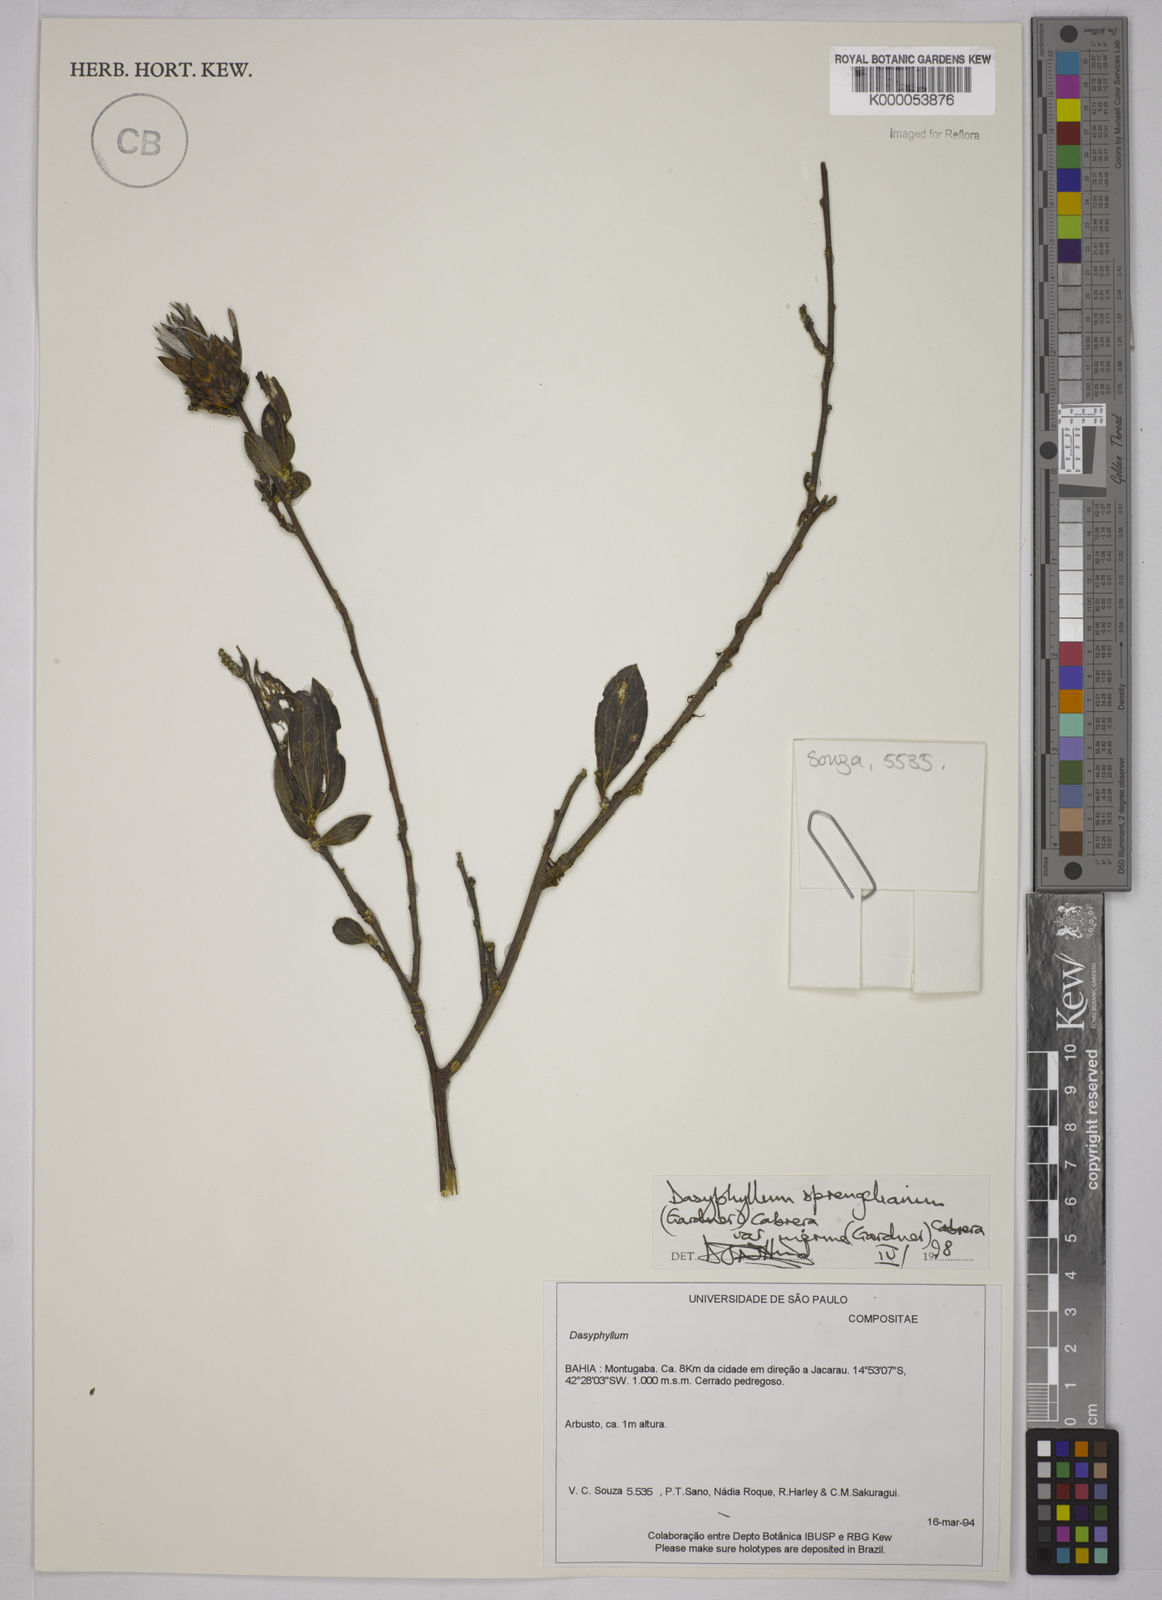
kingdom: Plantae
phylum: Tracheophyta
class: Magnoliopsida
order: Asterales
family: Asteraceae
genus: Dasyphyllum
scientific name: Dasyphyllum sprengelianum
